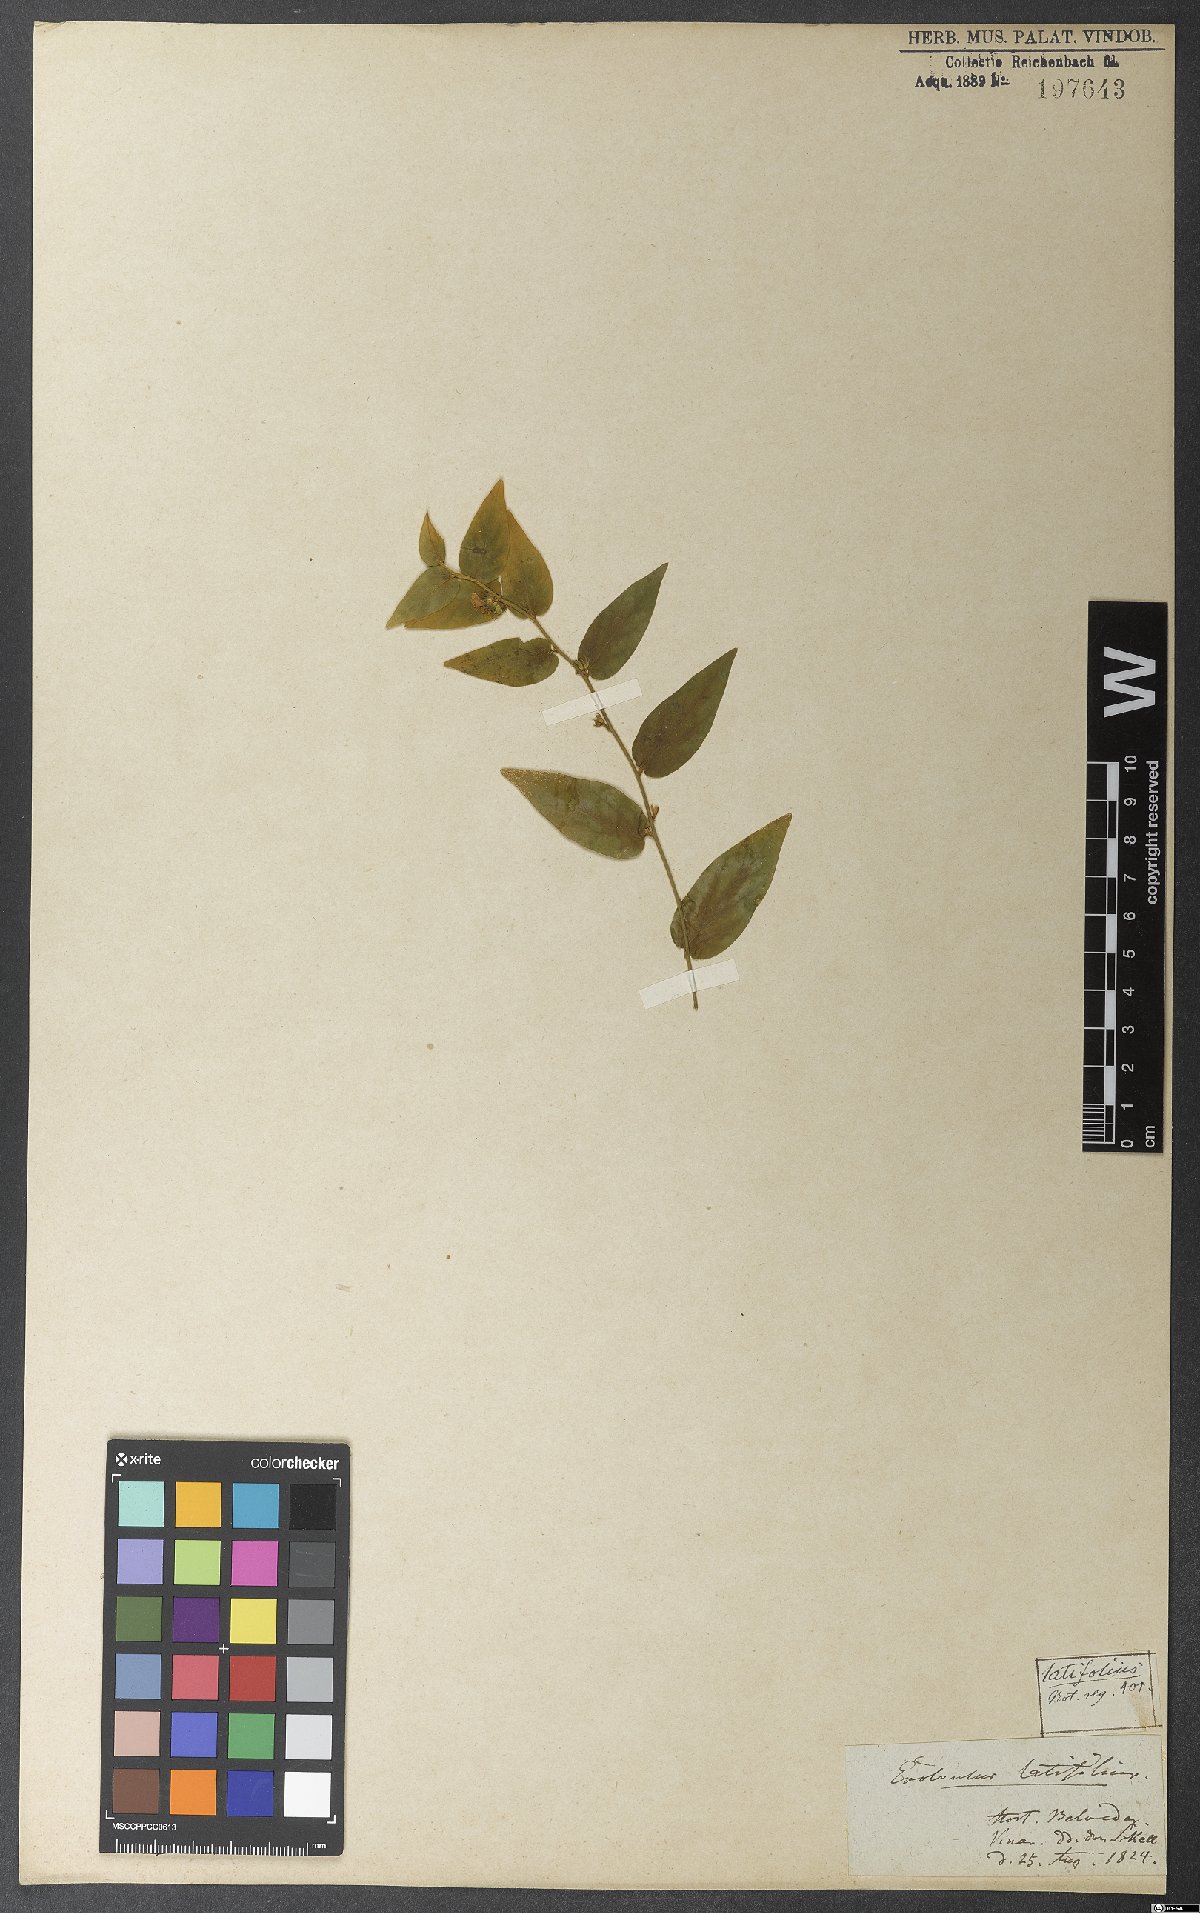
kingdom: Plantae
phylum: Tracheophyta
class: Magnoliopsida
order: Solanales
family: Convolvulaceae
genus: Evolvulus
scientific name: Evolvulus latifolius
